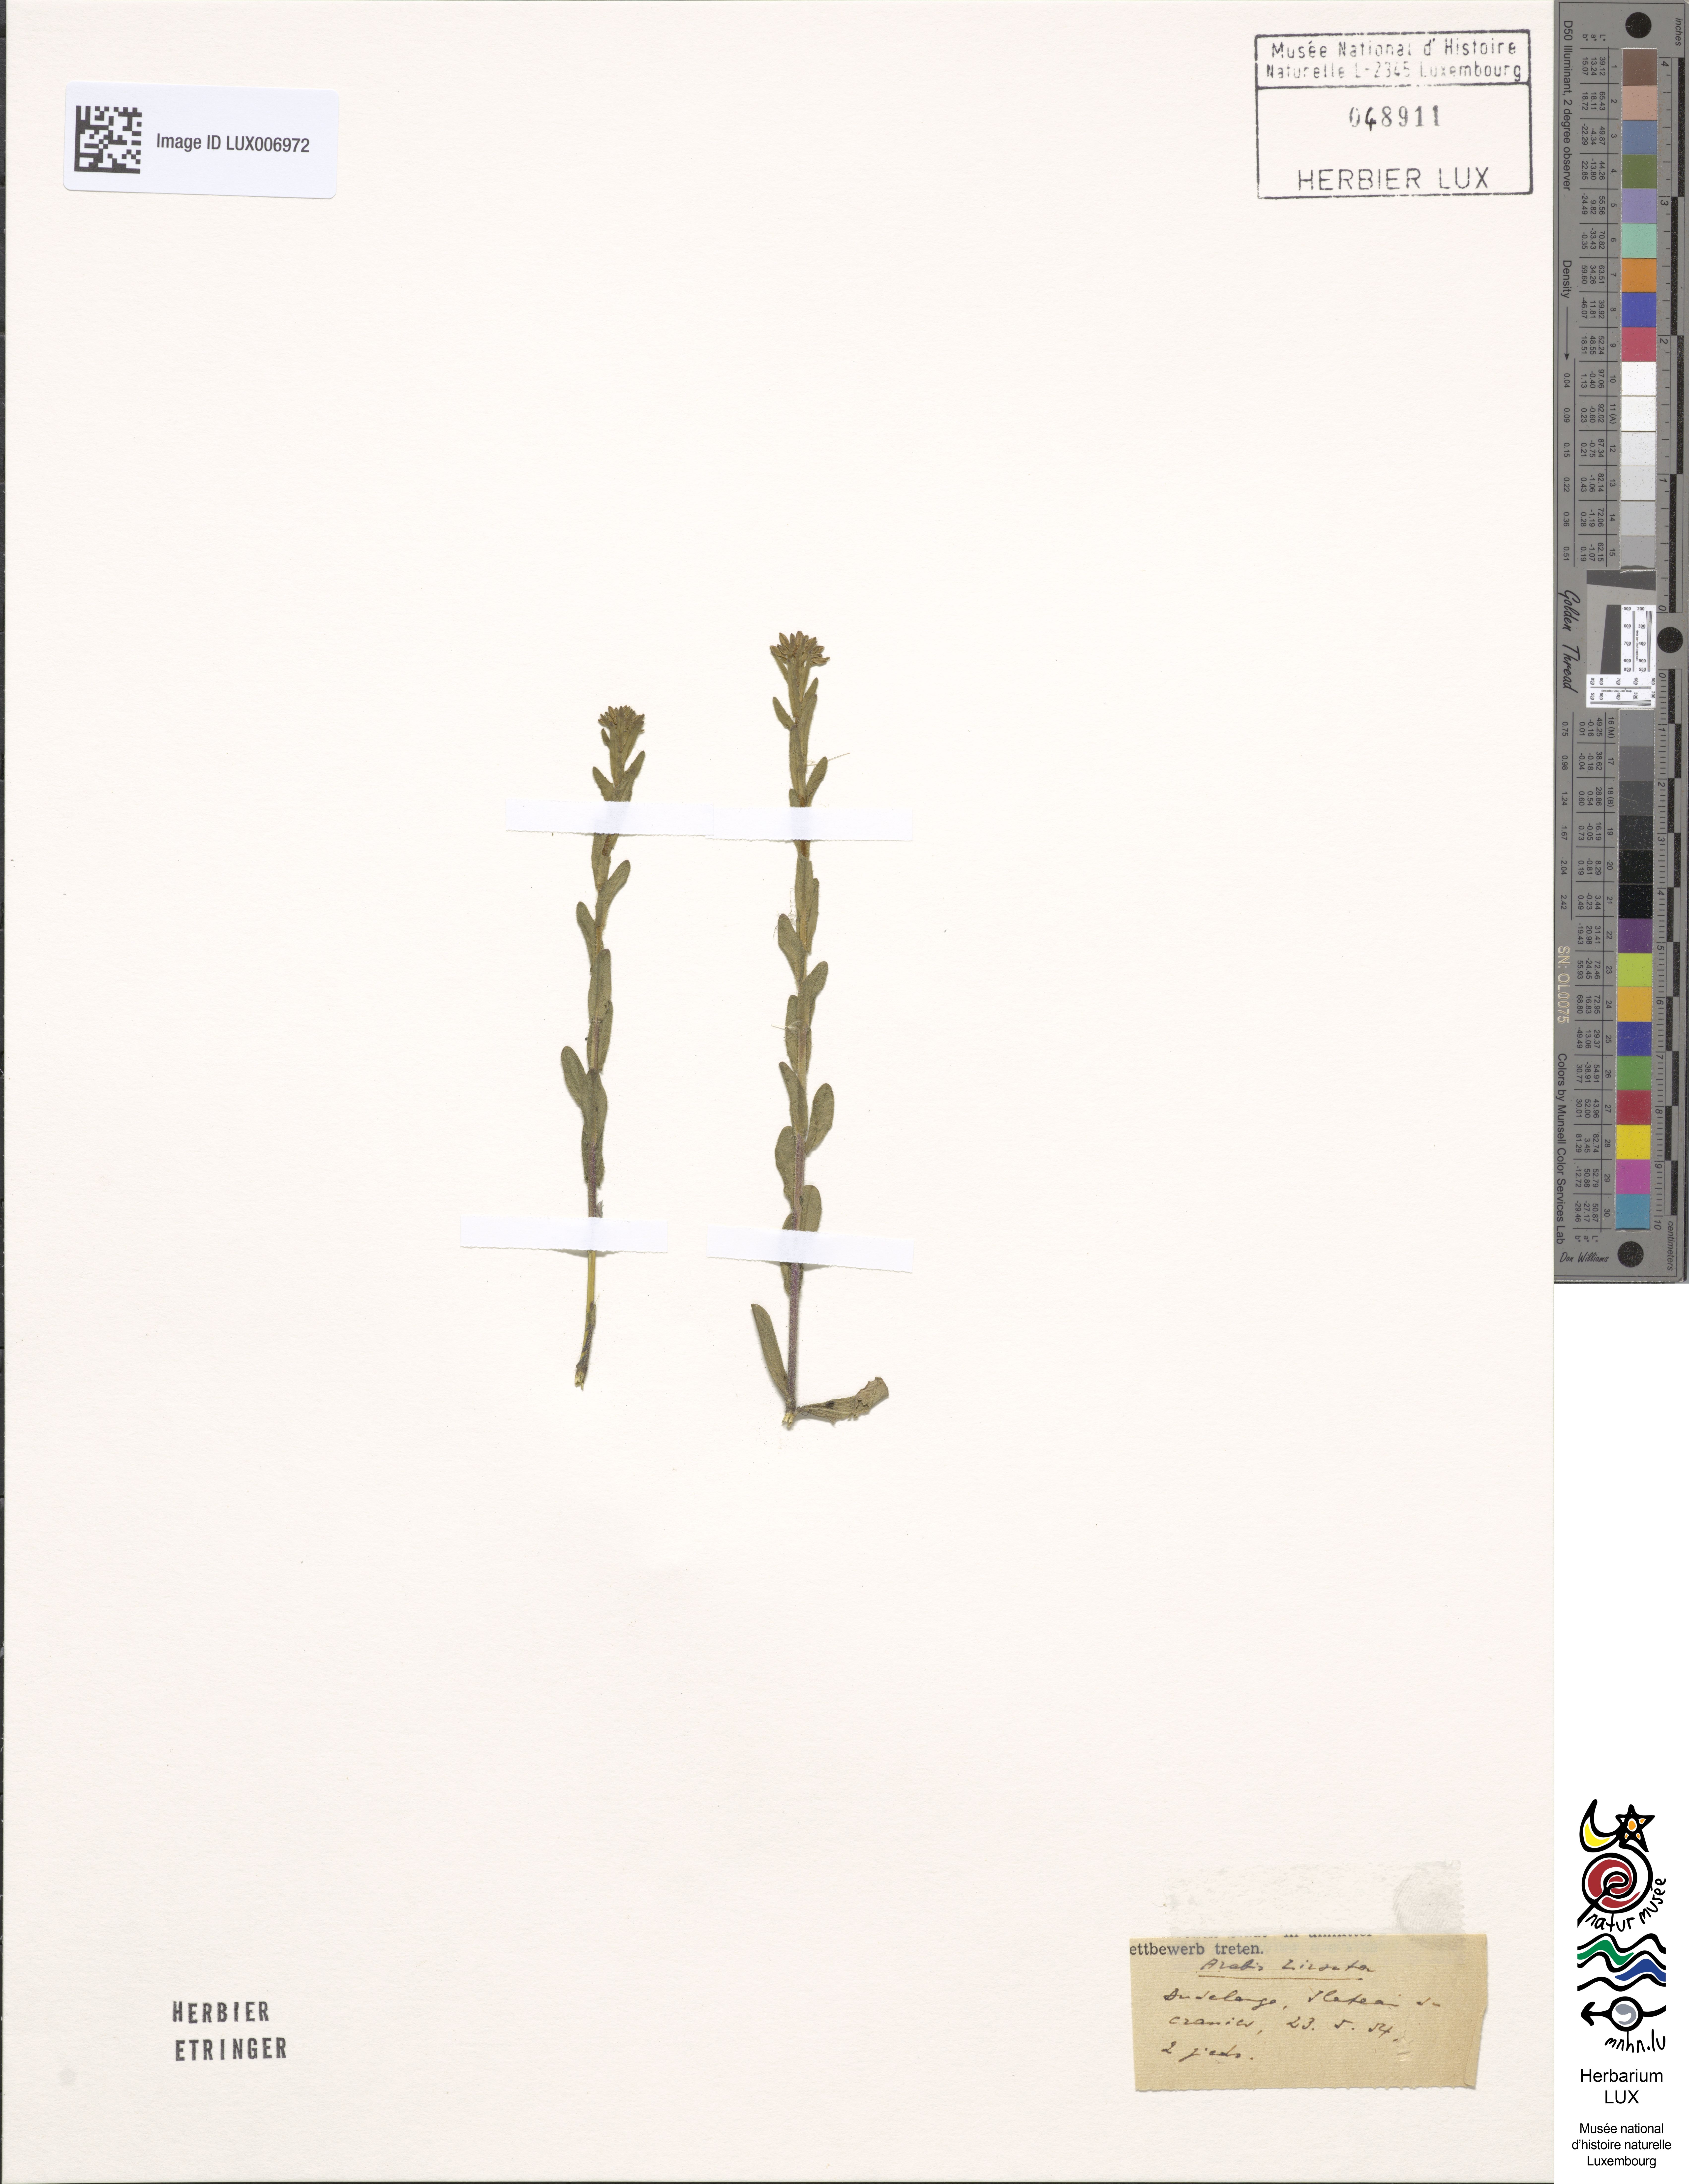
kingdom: Plantae
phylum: Tracheophyta
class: Magnoliopsida
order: Brassicales
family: Brassicaceae
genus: Arabis
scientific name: Arabis hirsuta
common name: Hairy rock-cress
